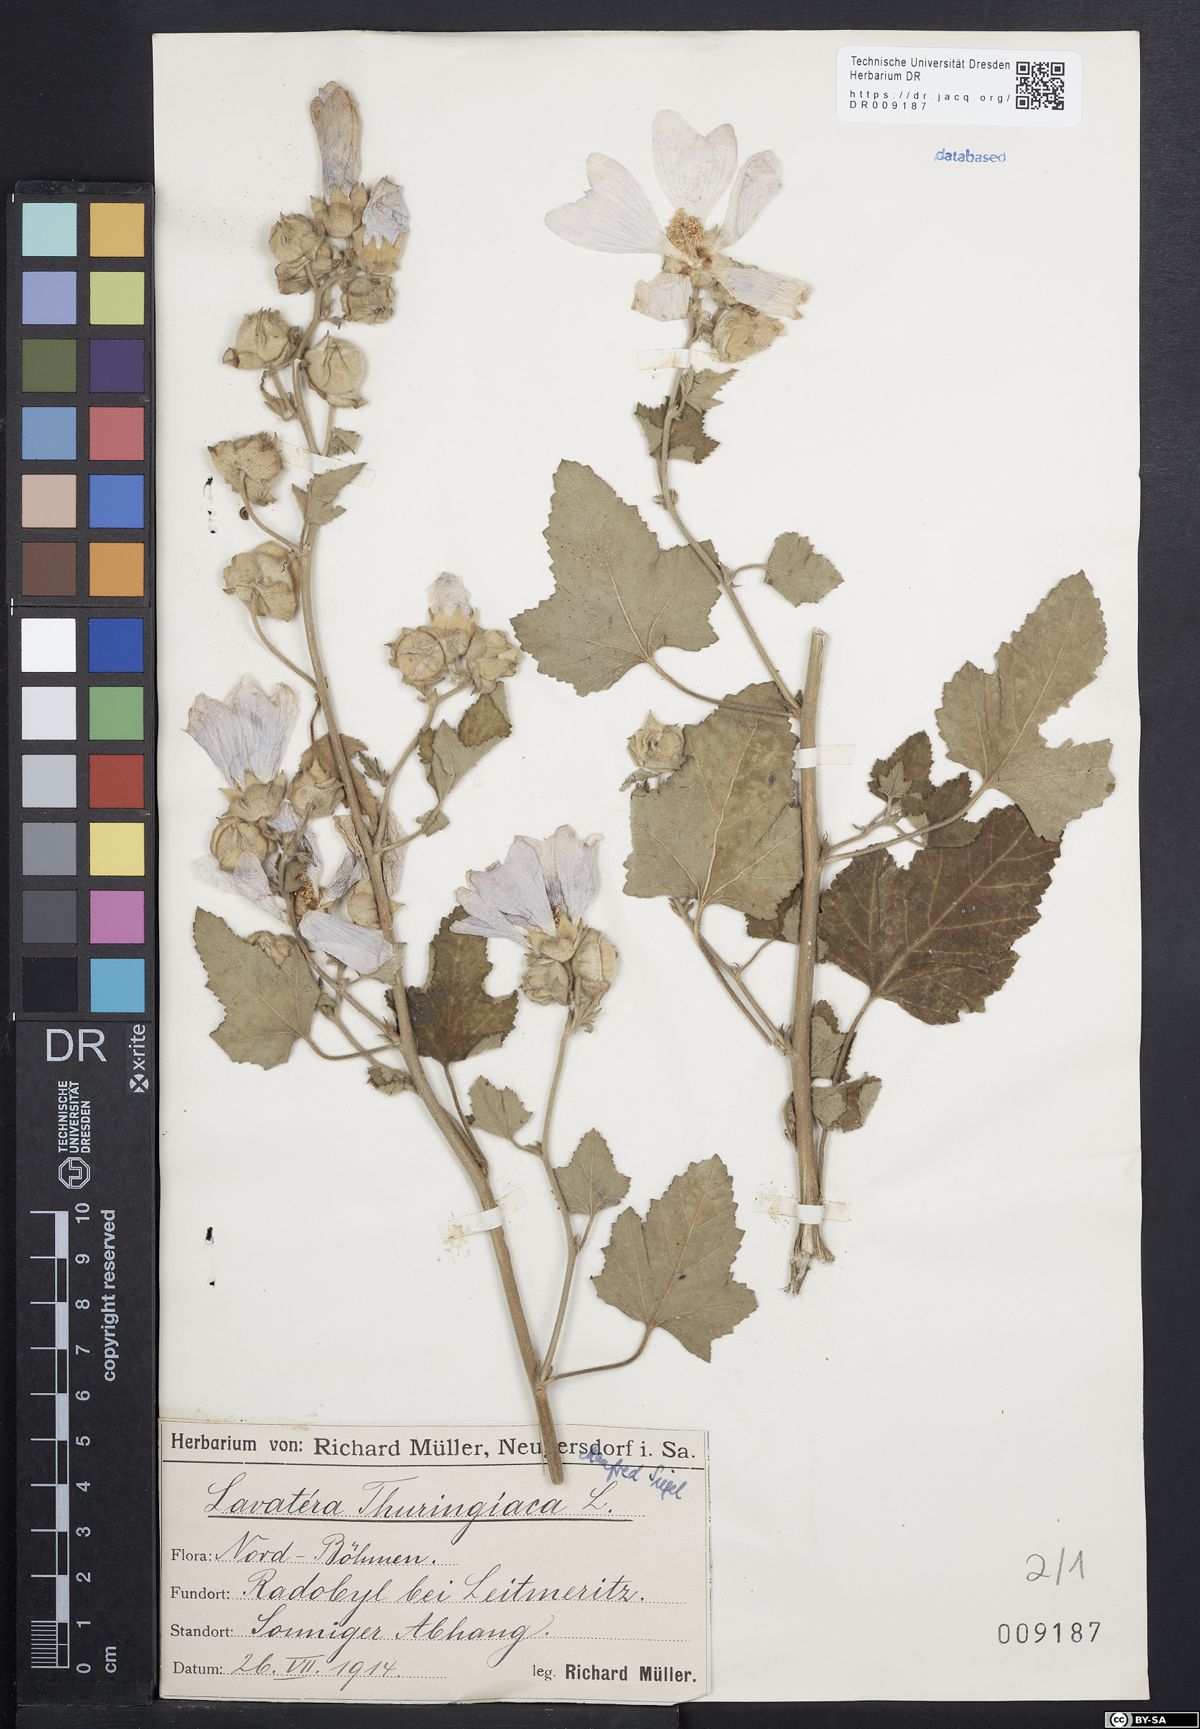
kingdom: Plantae
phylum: Tracheophyta
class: Magnoliopsida
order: Malvales
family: Malvaceae
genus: Malva
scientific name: Malva thuringiaca
